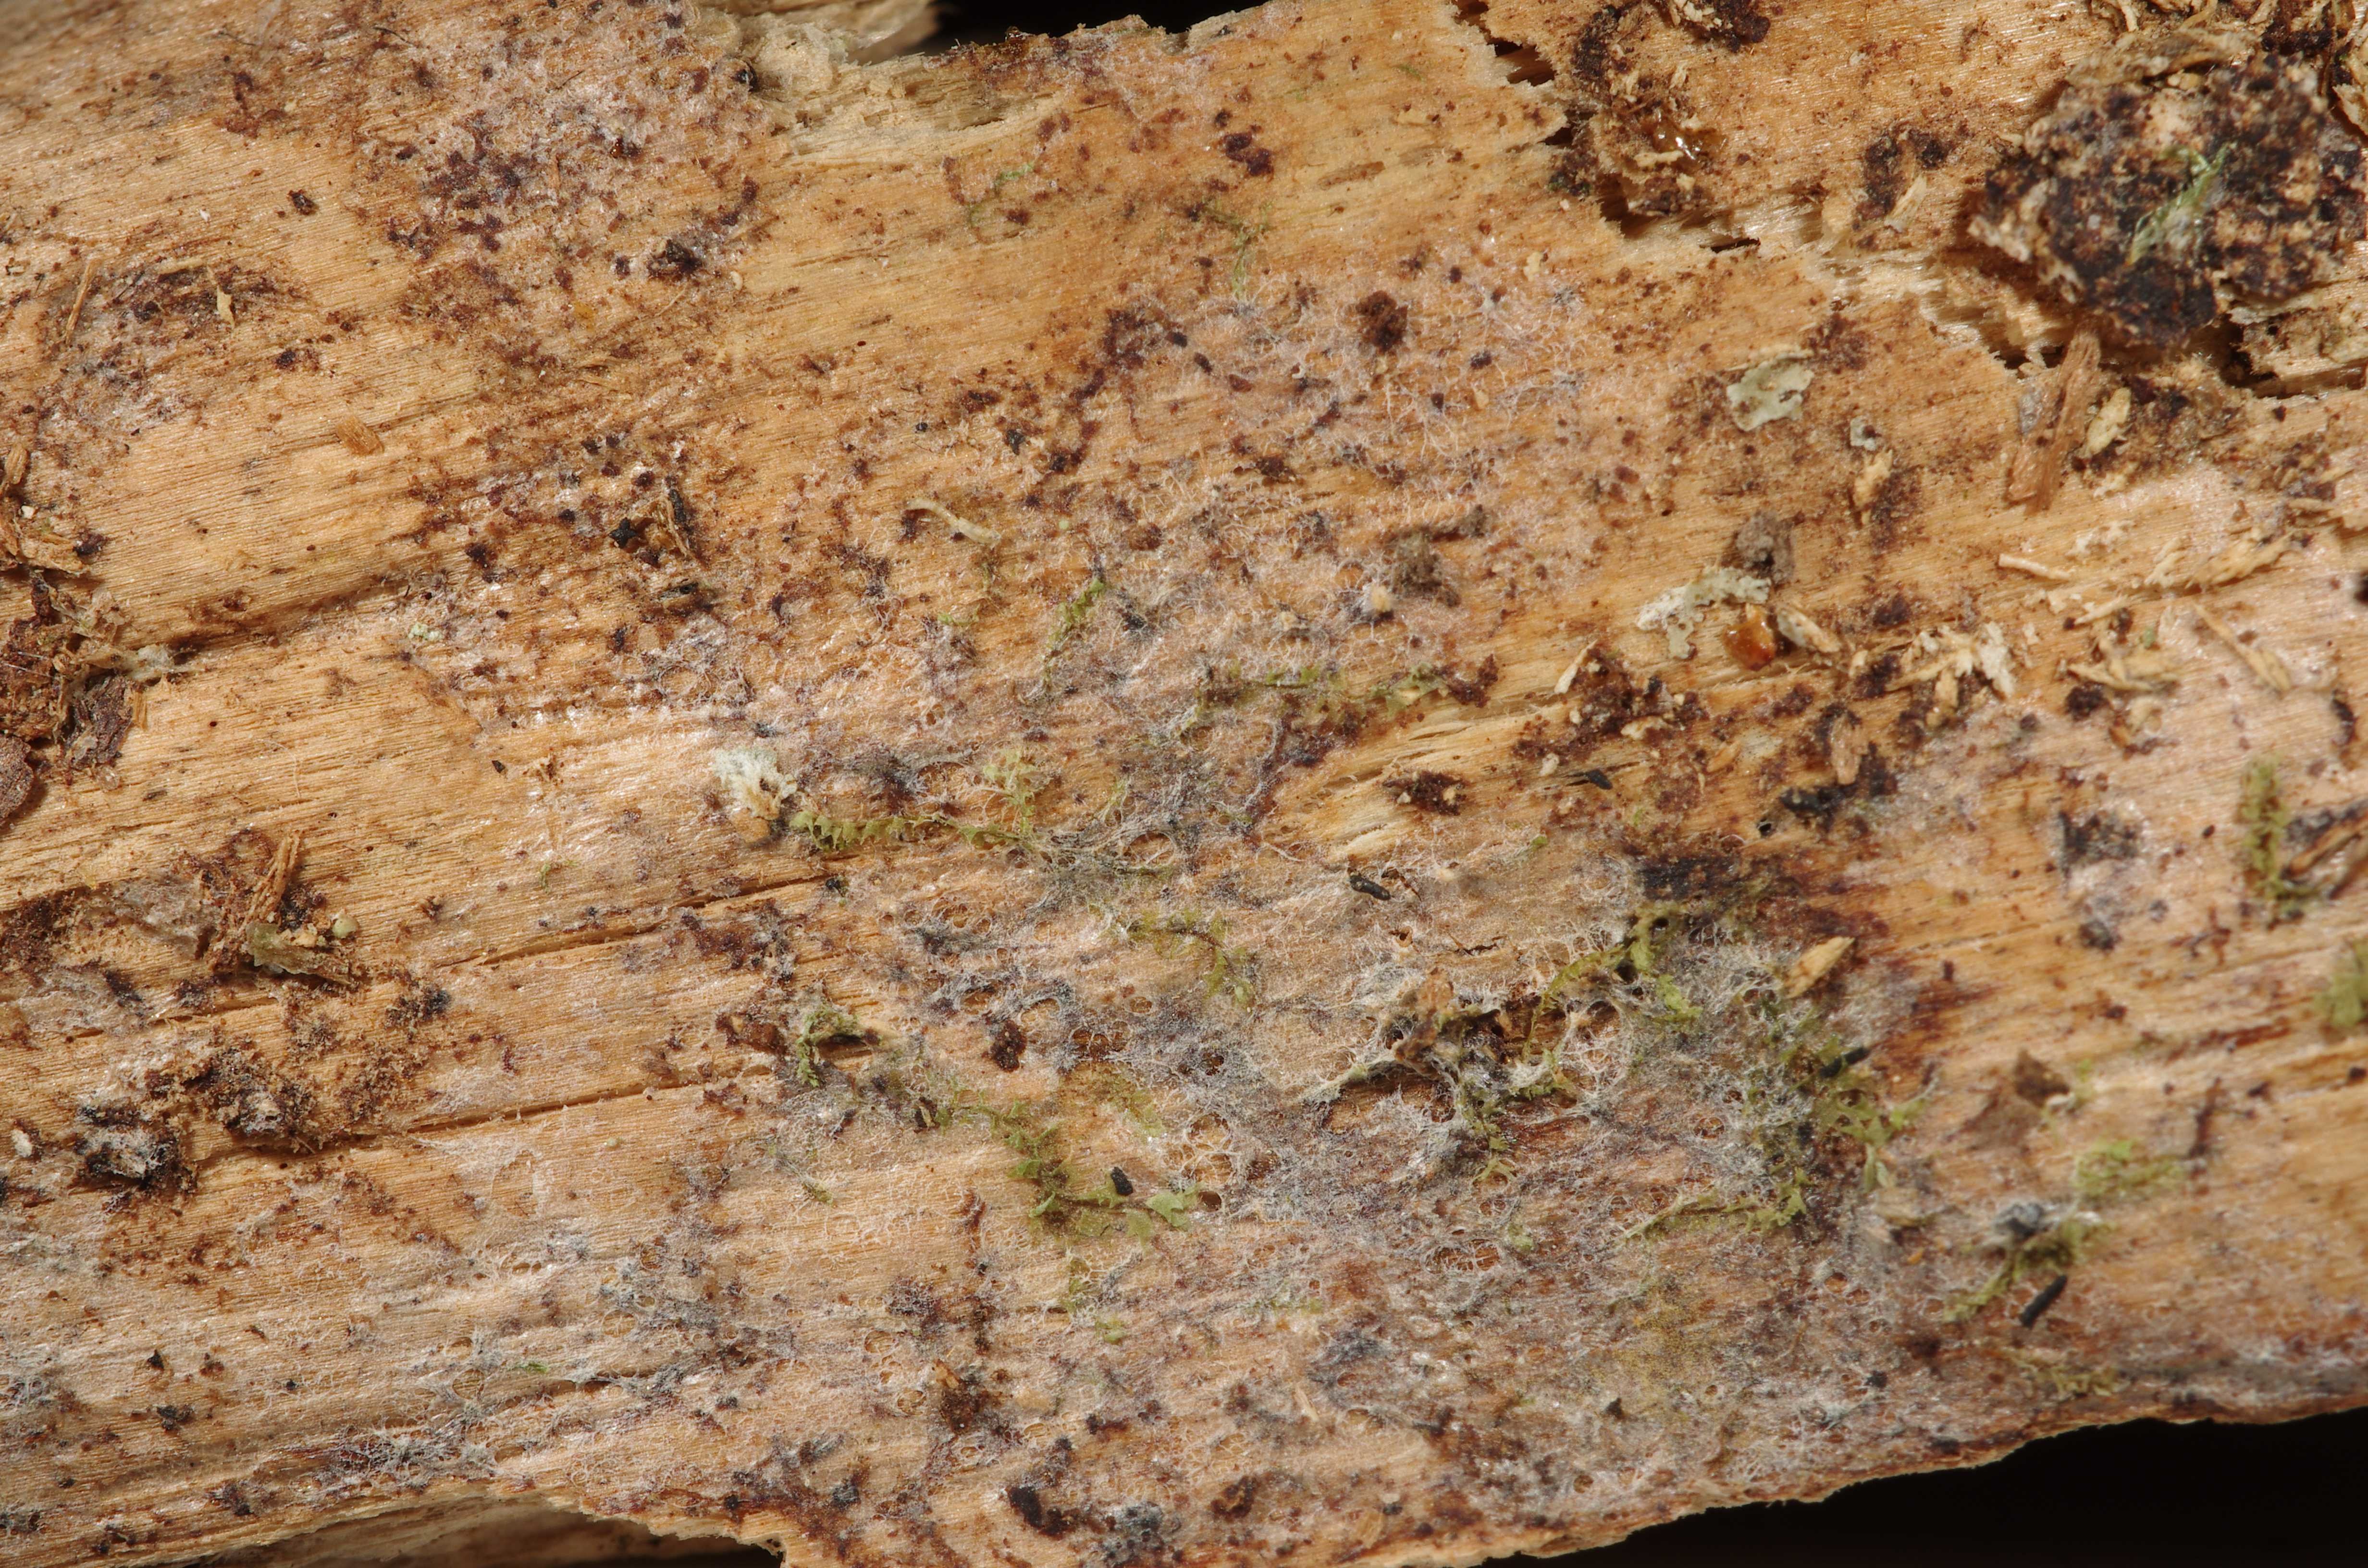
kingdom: Fungi
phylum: Basidiomycota
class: Agaricomycetes
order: Auriculariales
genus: Mycostilla
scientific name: Mycostilla vermiformis
